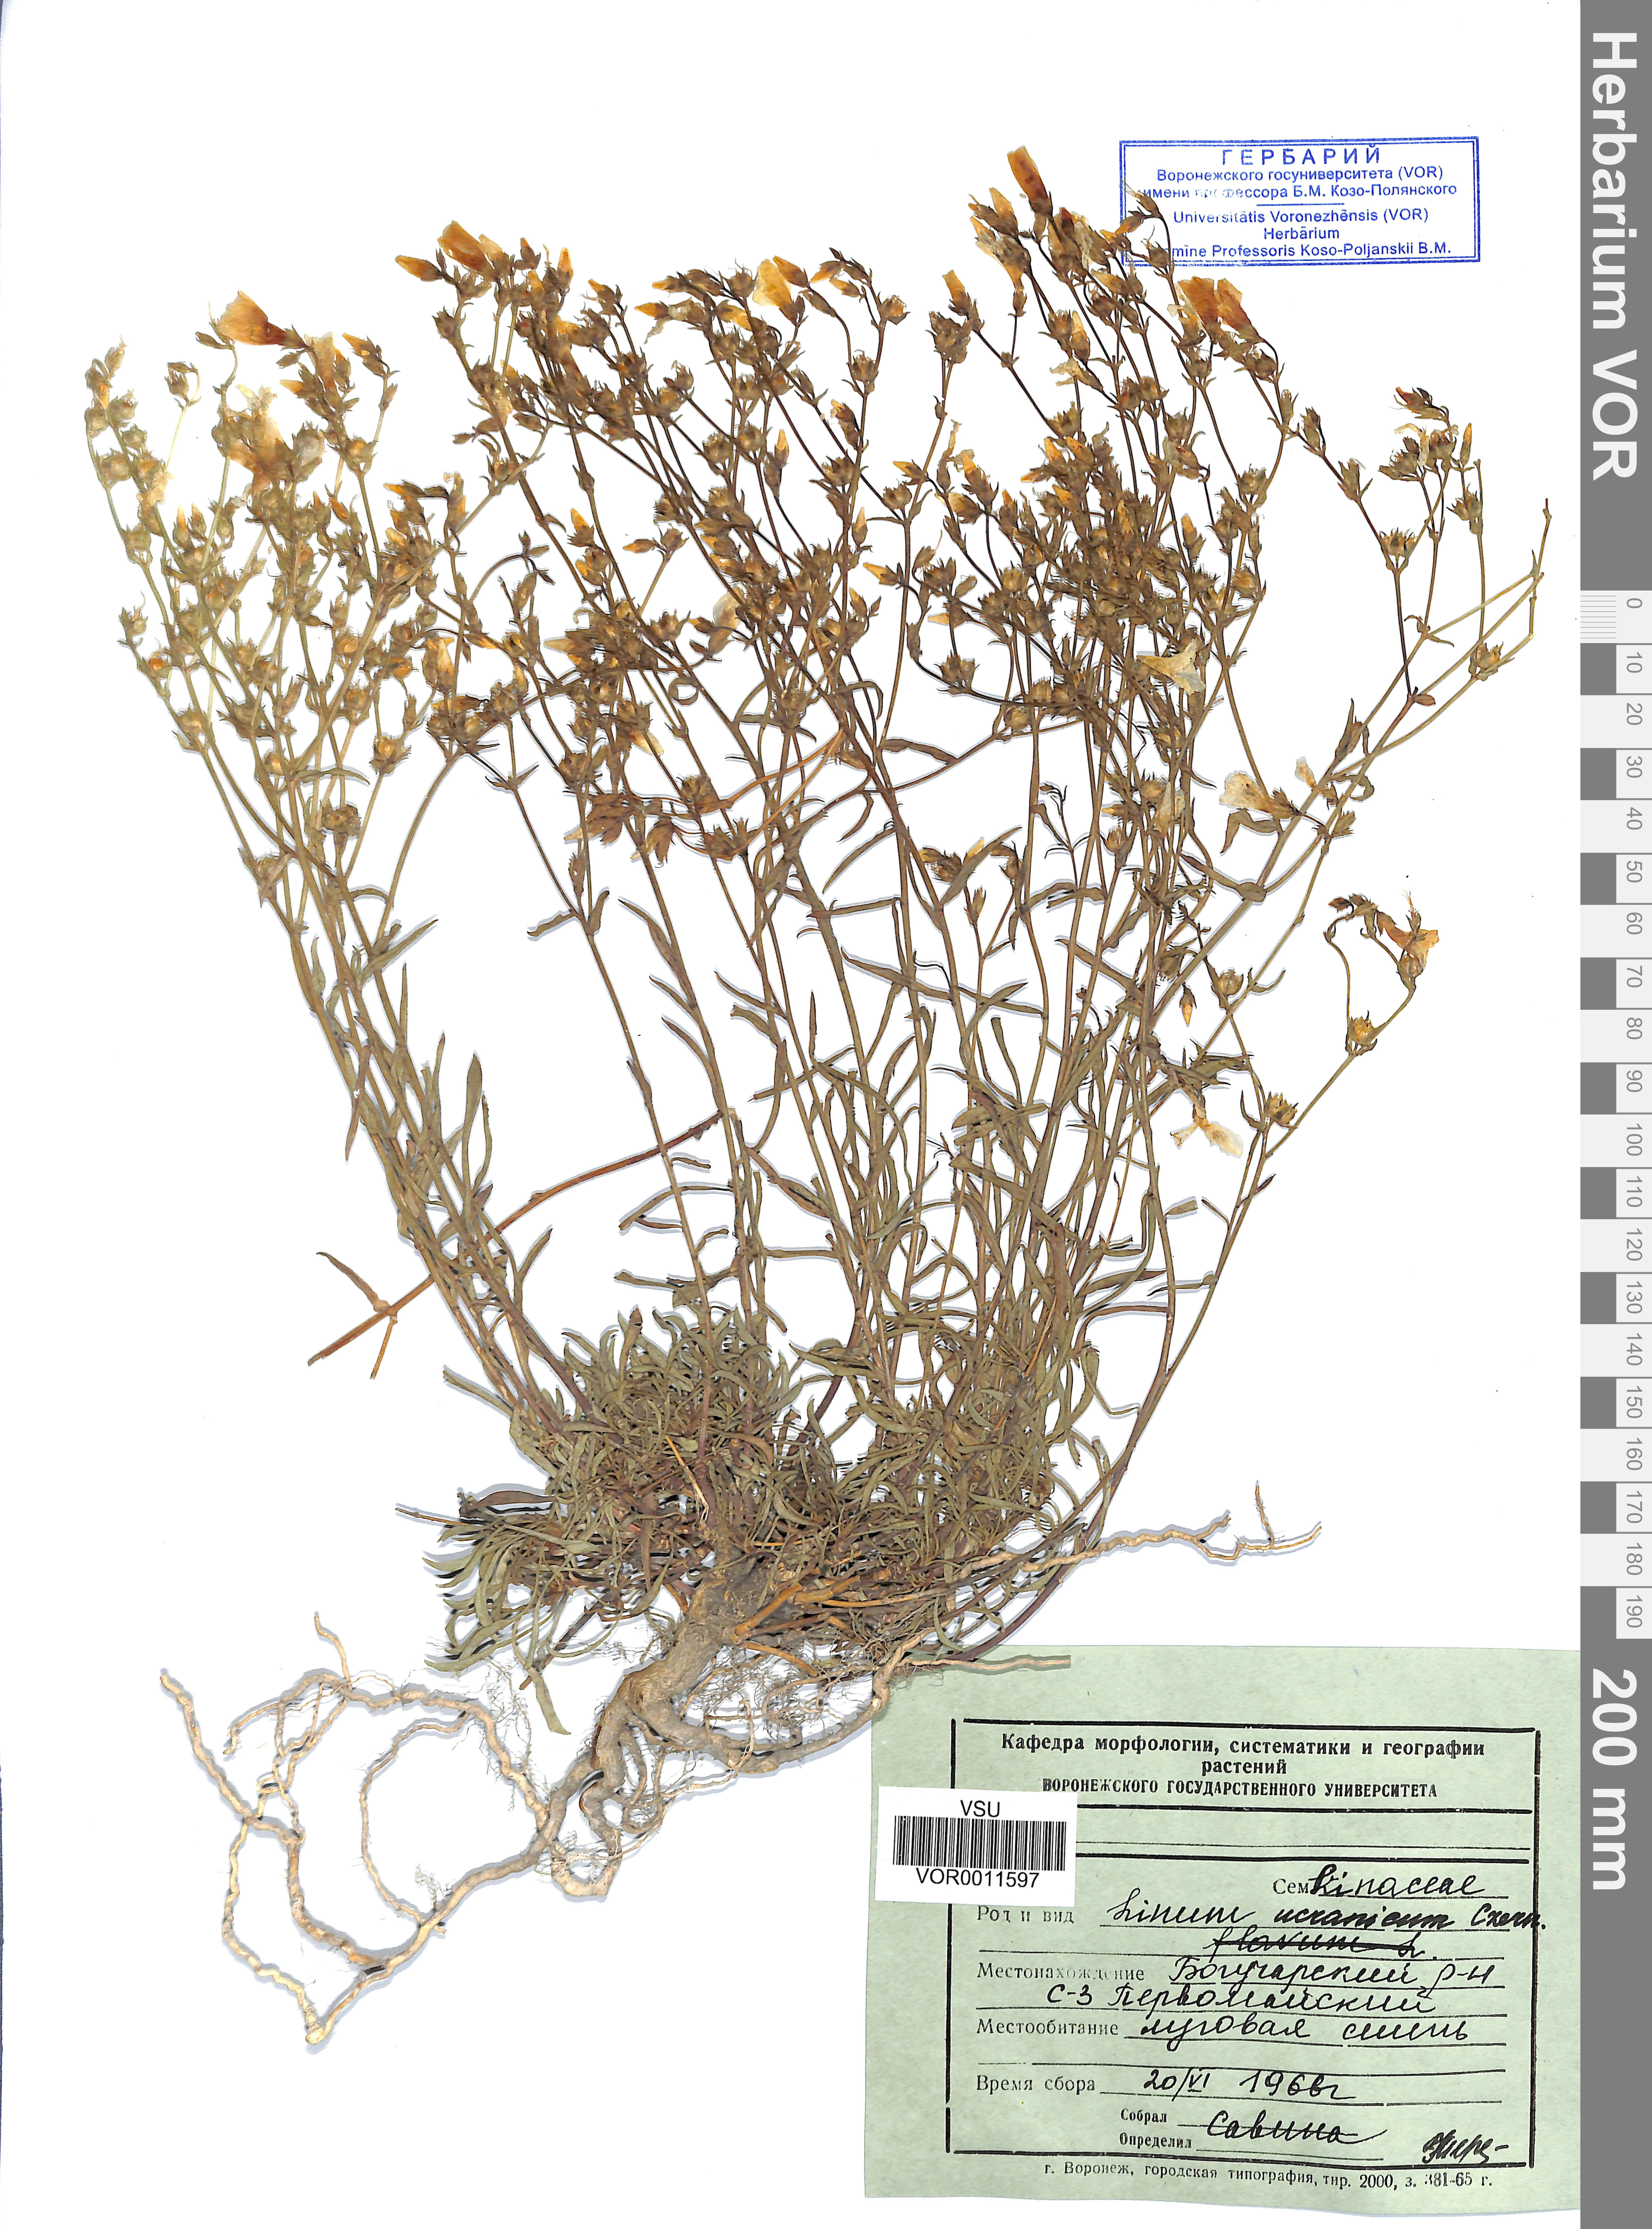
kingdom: Plantae
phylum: Tracheophyta
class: Magnoliopsida
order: Malpighiales
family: Linaceae
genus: Linum
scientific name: Linum ucranicum
